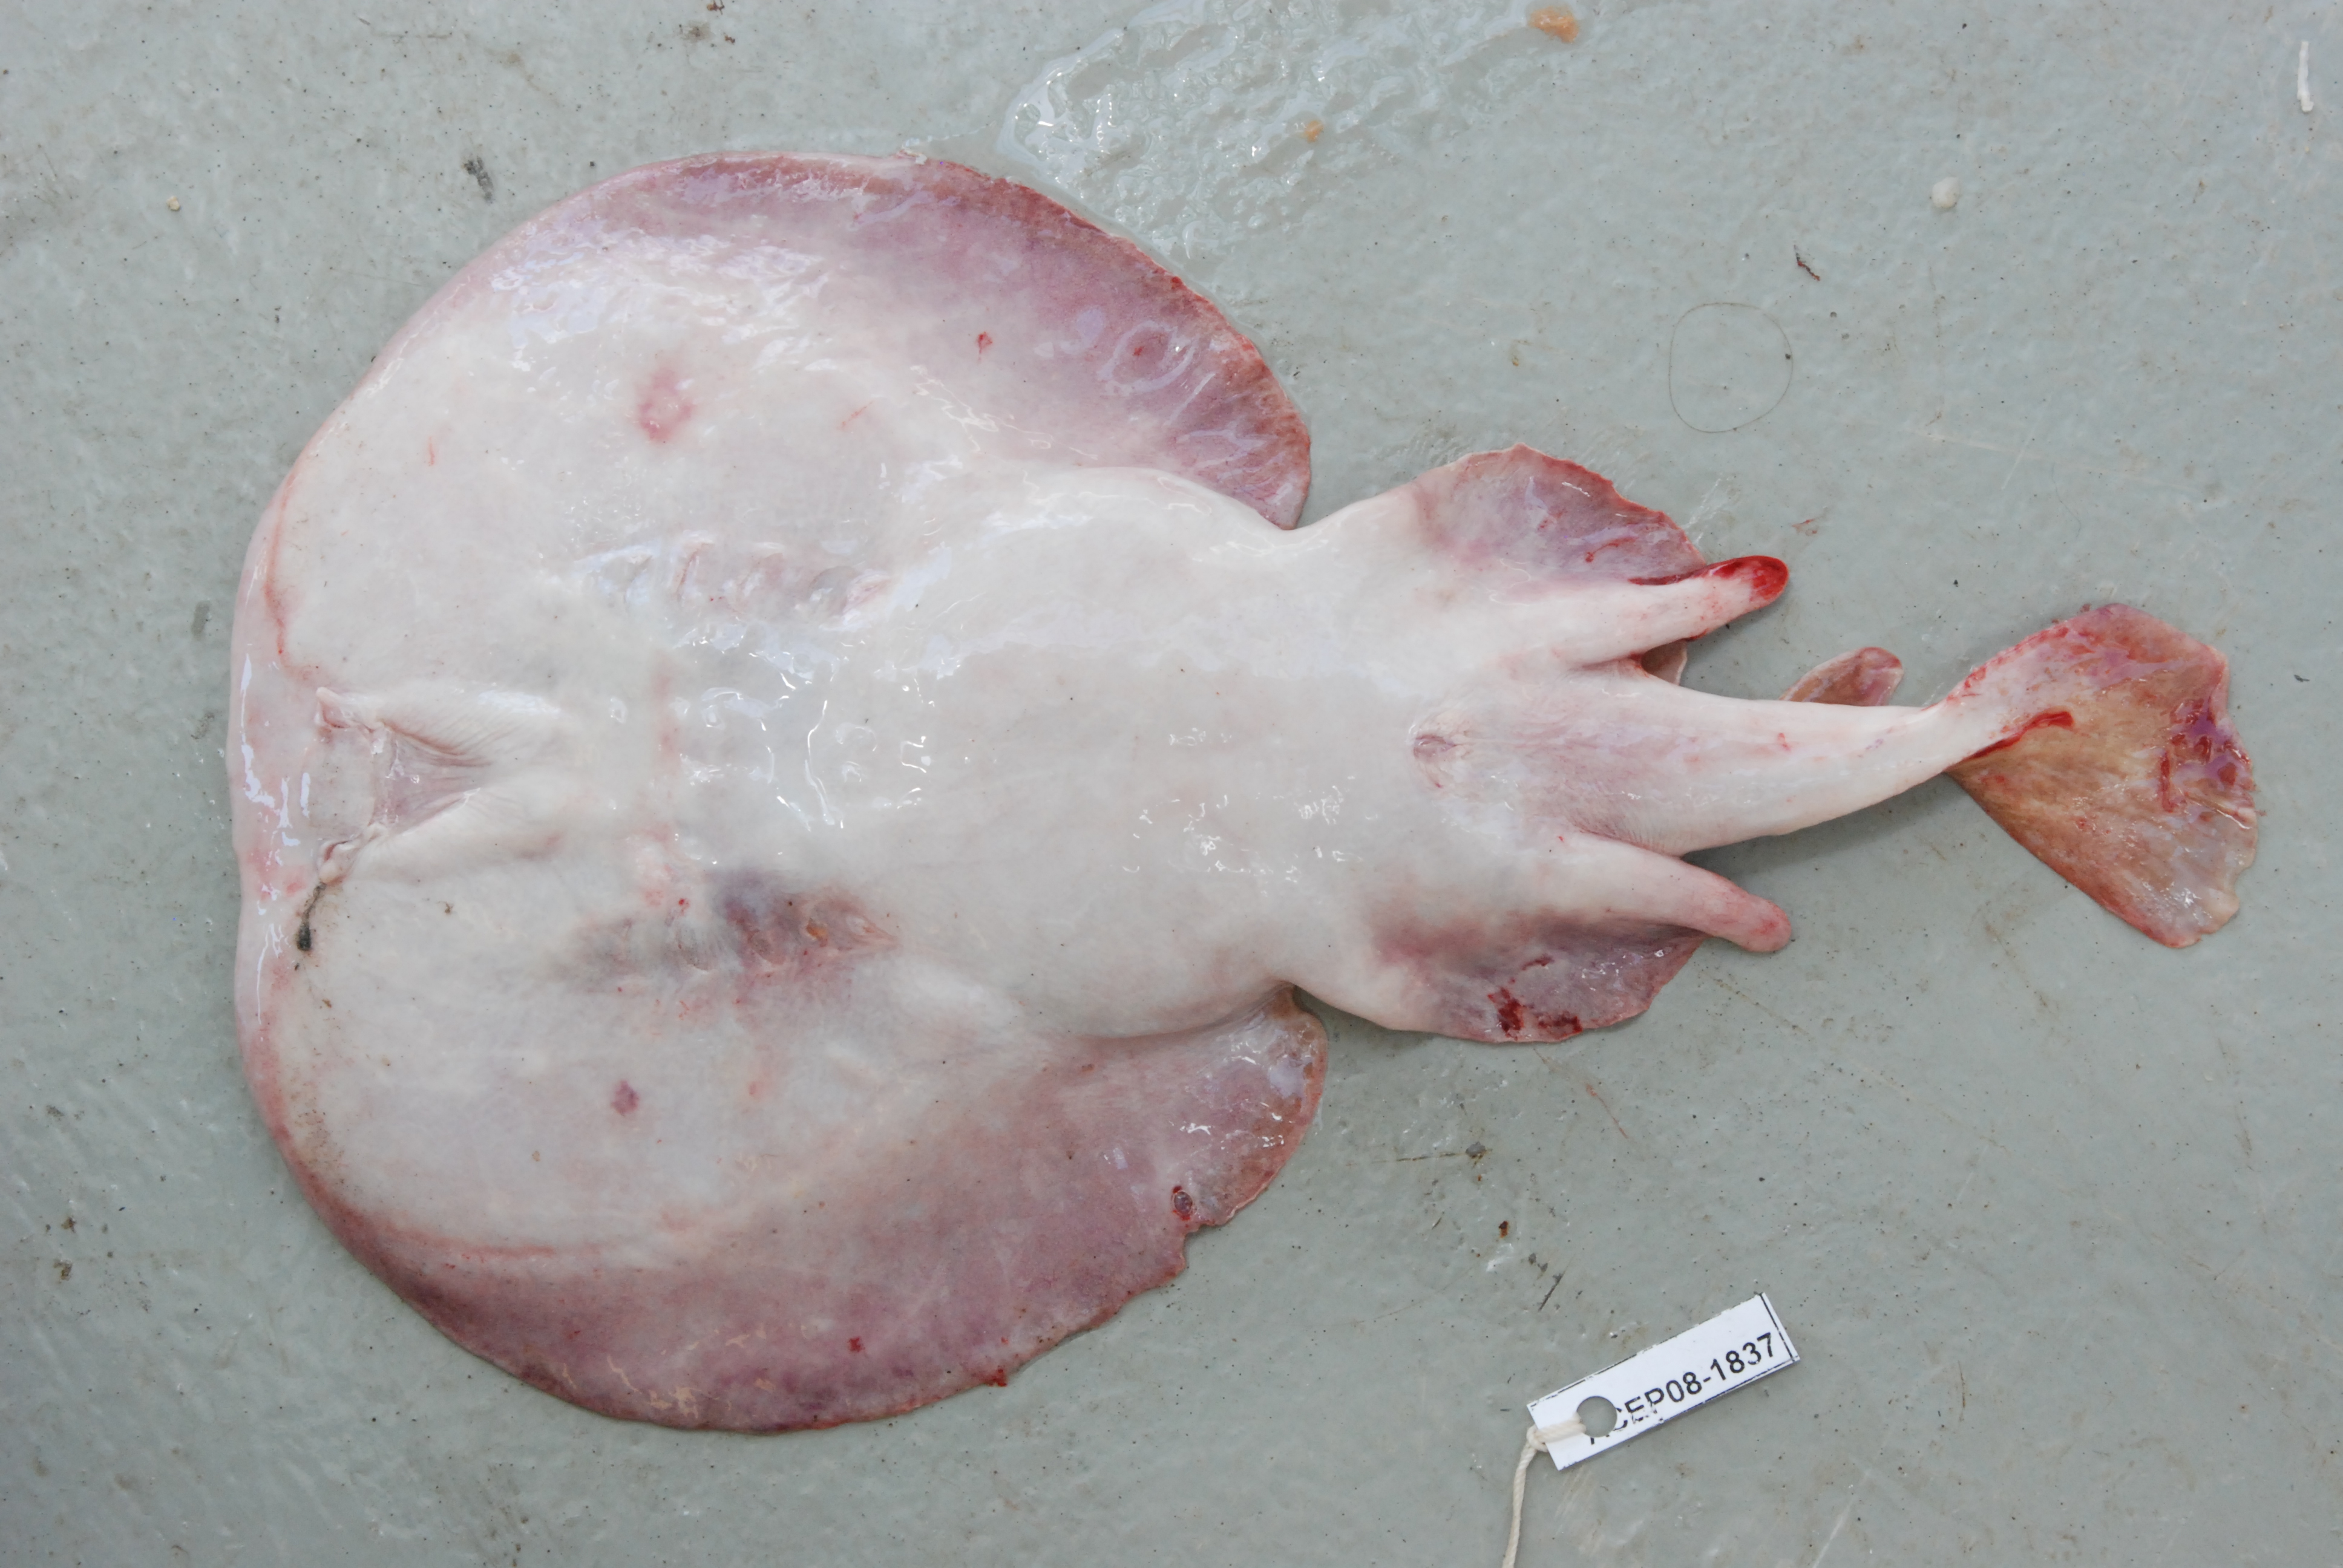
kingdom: Animalia
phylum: Chordata
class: Elasmobranchii
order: Torpediniformes
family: Torpedinidae
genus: Torpedo
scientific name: Torpedo panthera
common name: Leopard torpedo
